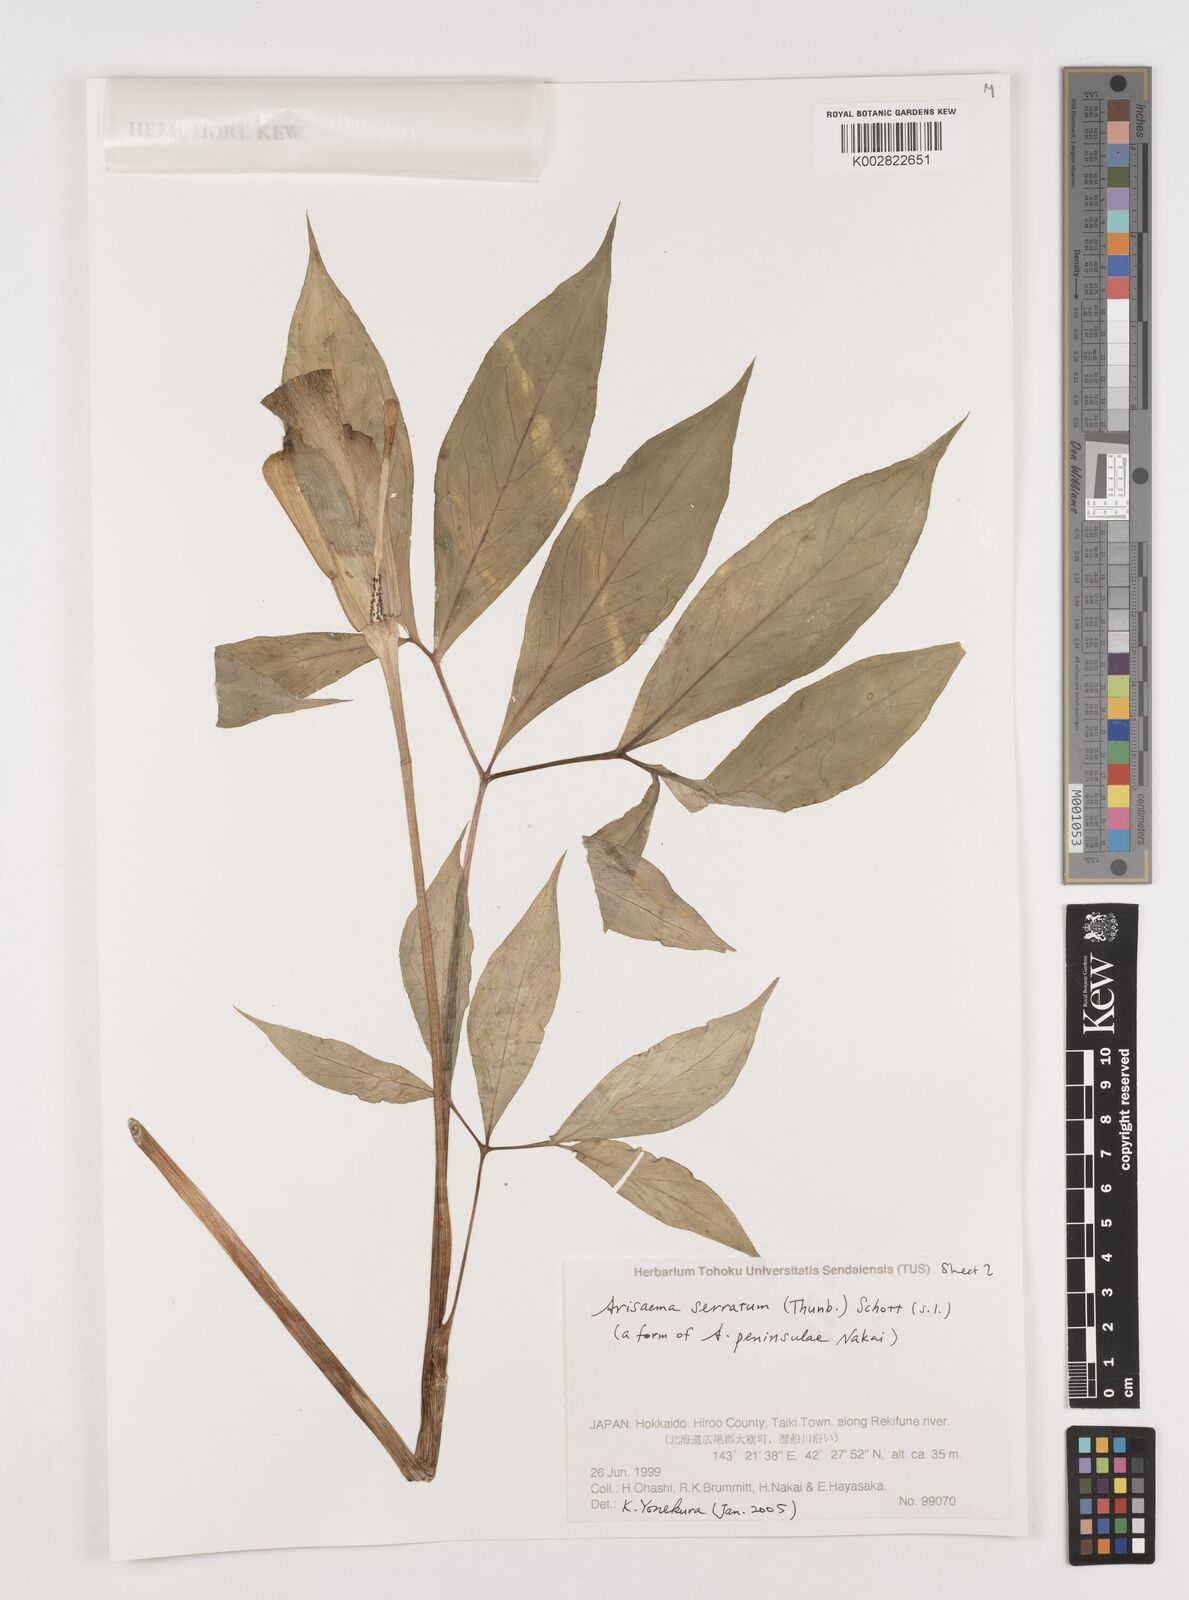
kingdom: Plantae
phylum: Tracheophyta
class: Liliopsida
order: Alismatales
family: Araceae
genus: Arisaema
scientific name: Arisaema serratum
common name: Japanese arisaema
